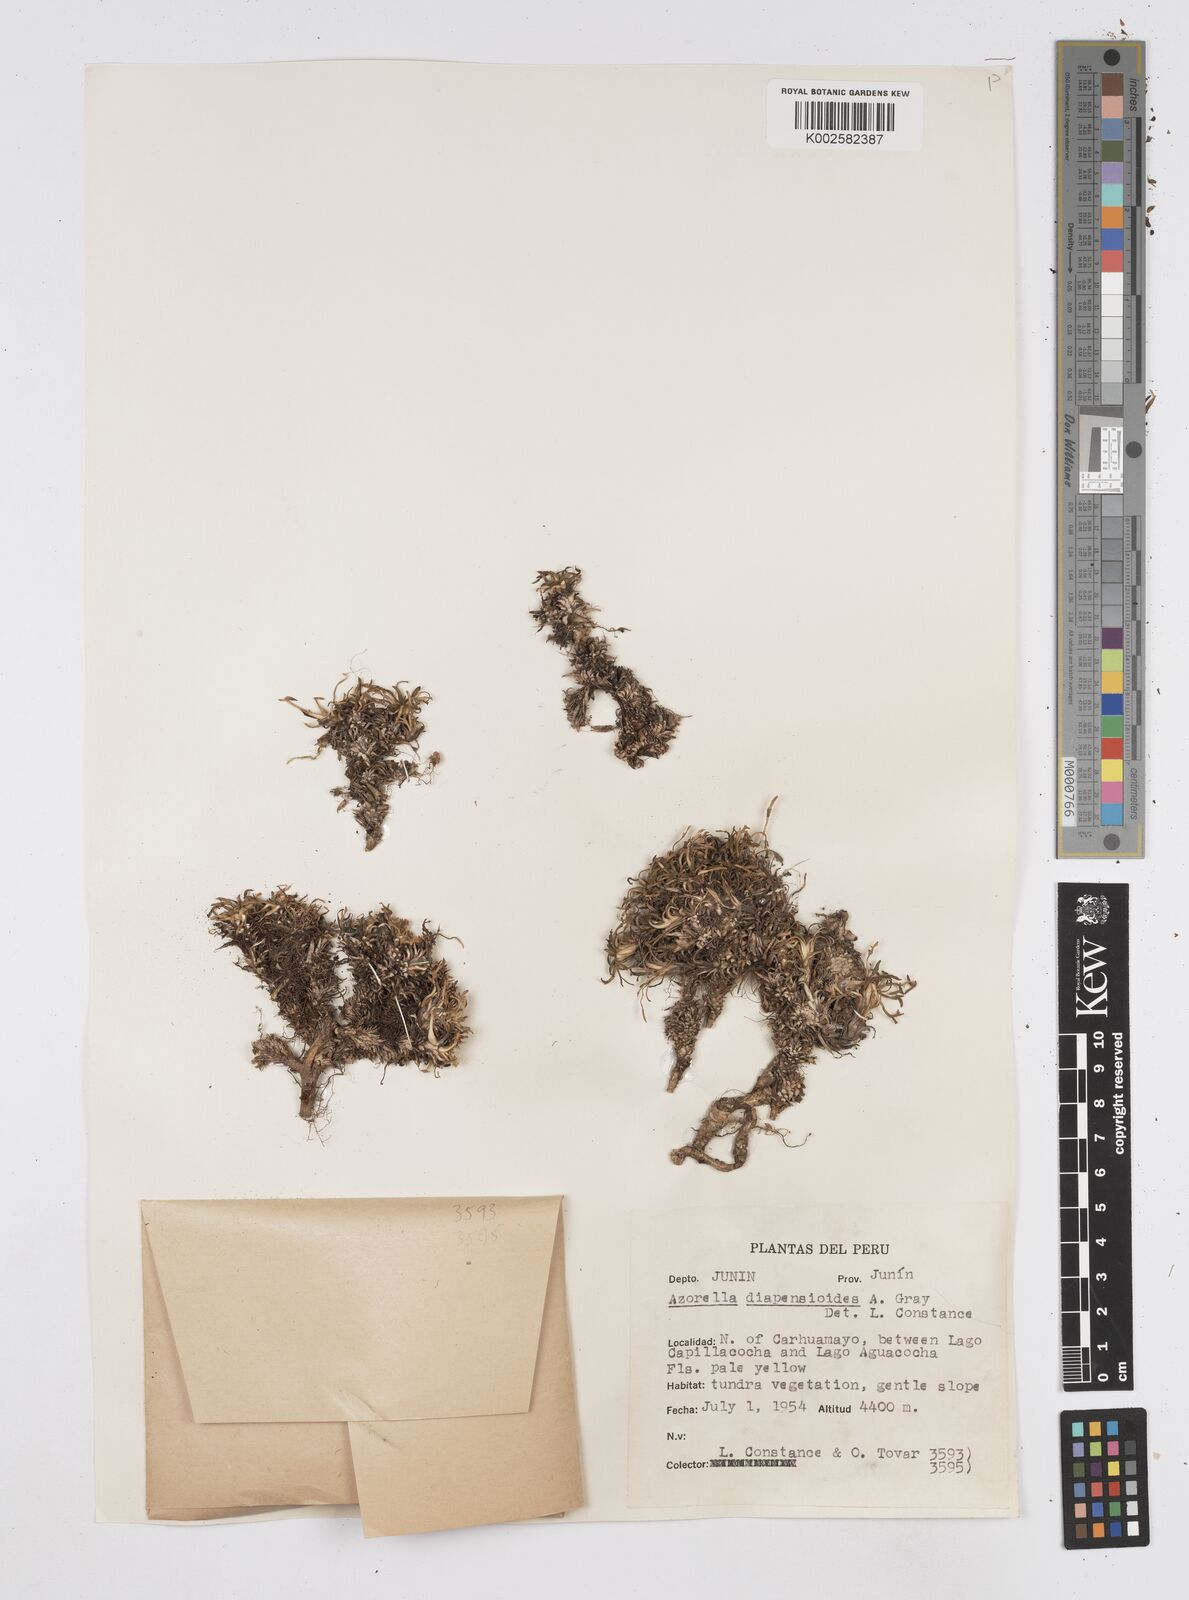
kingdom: Plantae
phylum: Tracheophyta
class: Magnoliopsida
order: Apiales
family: Apiaceae
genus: Azorella
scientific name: Azorella diapensioides
